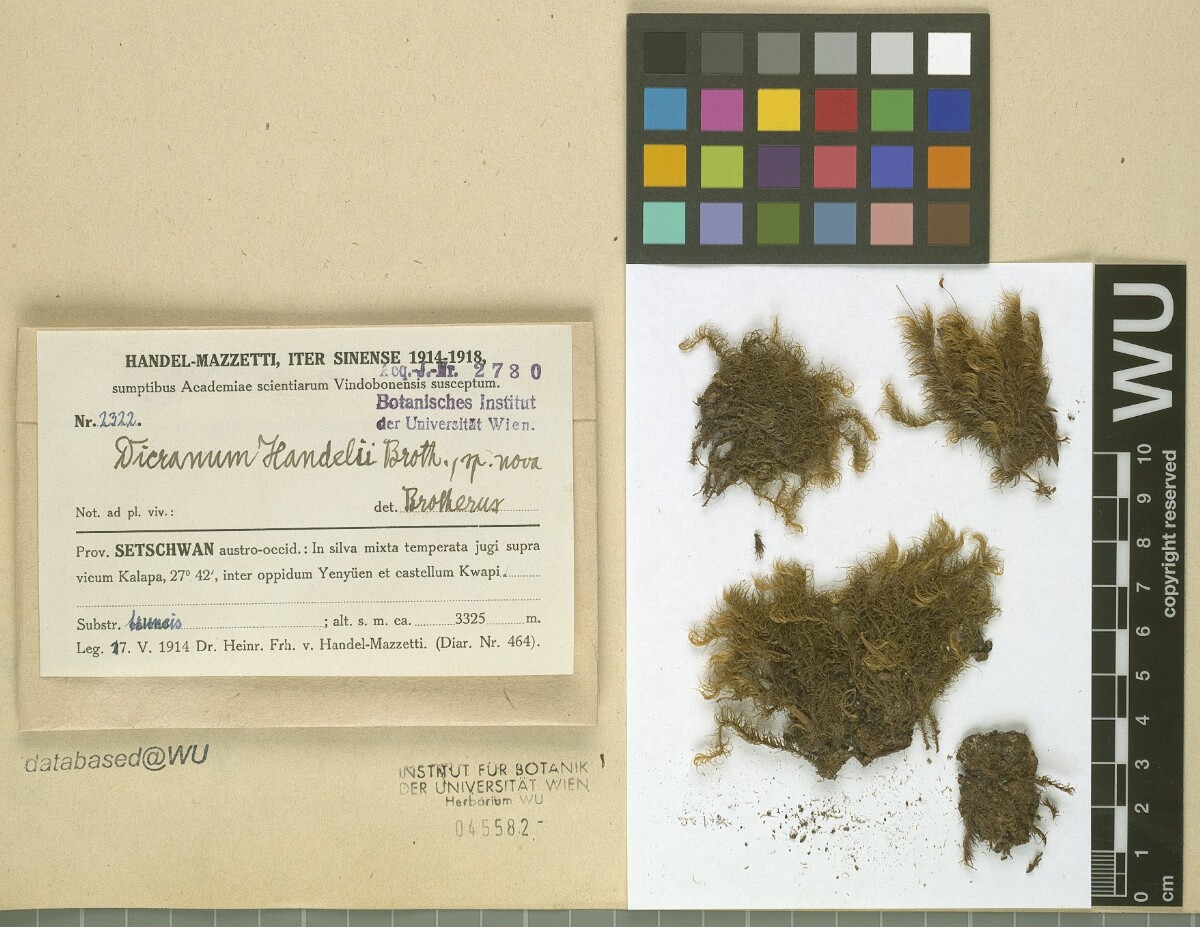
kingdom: Plantae
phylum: Bryophyta
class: Bryopsida
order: Dicranales
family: Dicranaceae
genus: Pseudochorisodontium
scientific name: Pseudochorisodontium hokinense
